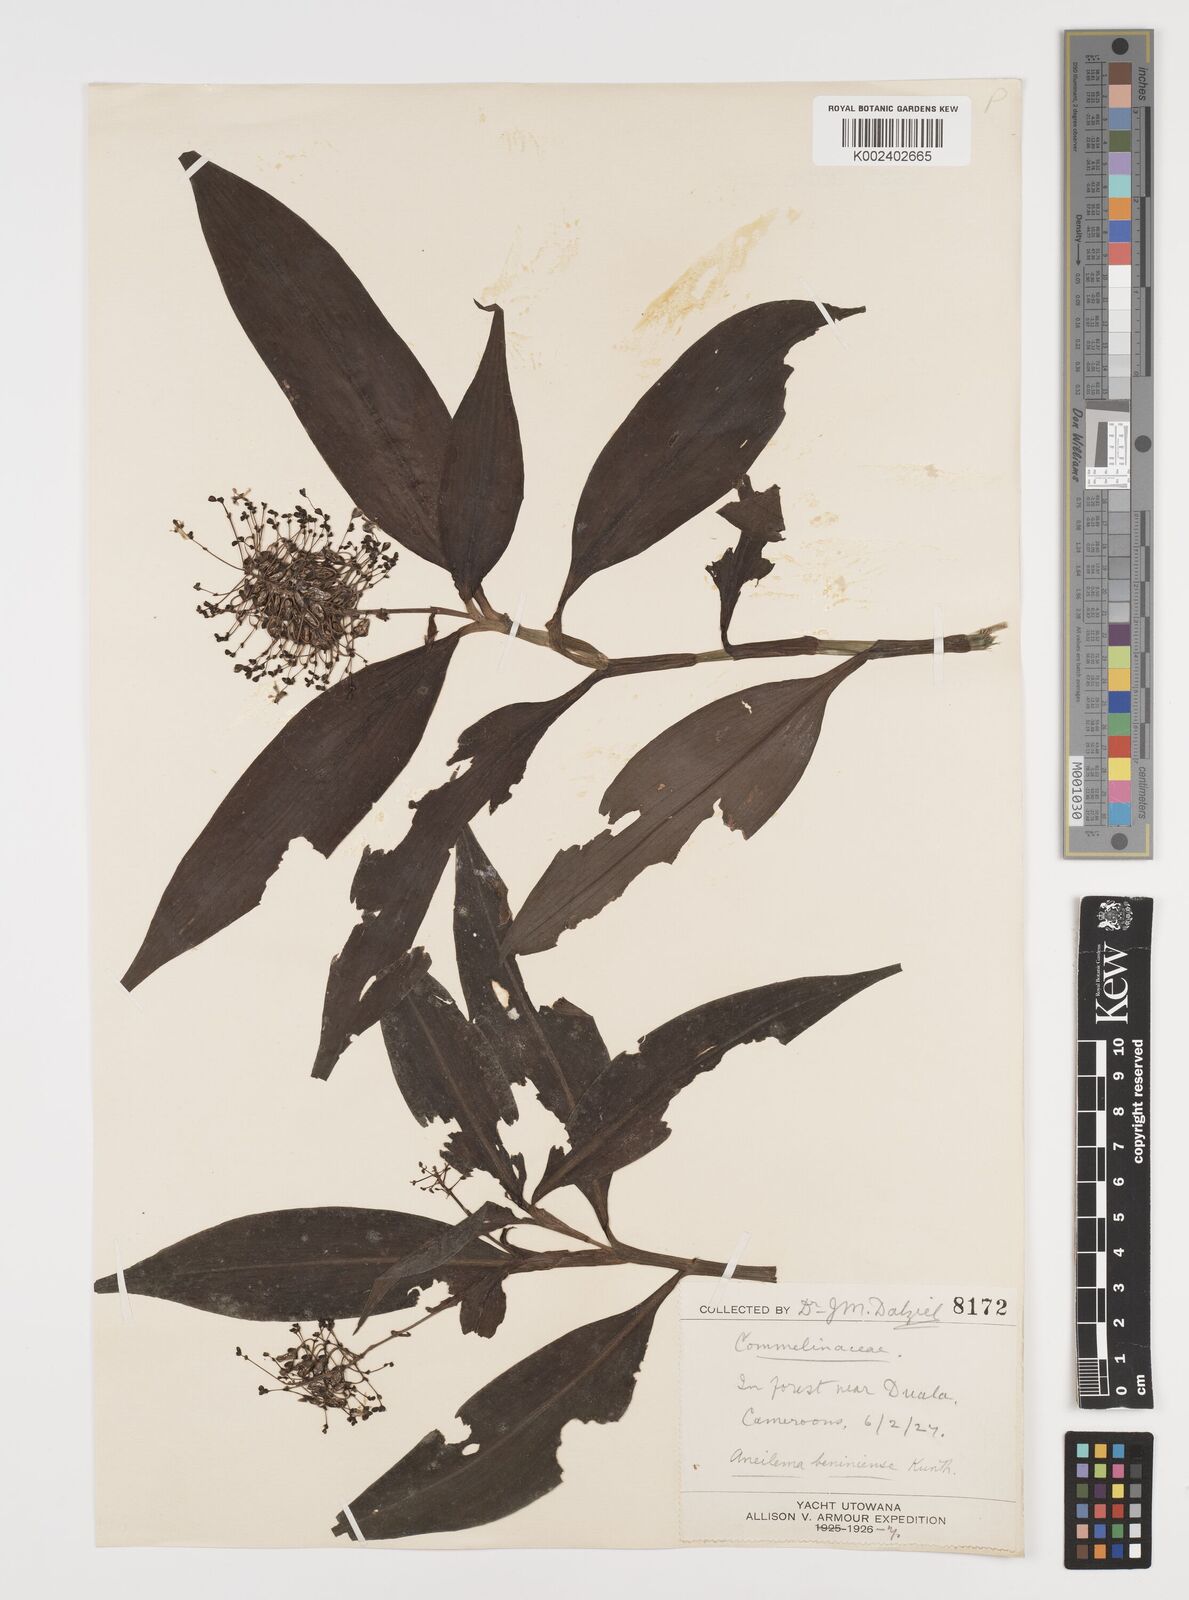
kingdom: Plantae
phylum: Tracheophyta
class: Liliopsida
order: Commelinales
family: Commelinaceae
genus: Aneilema
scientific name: Aneilema beniniense
